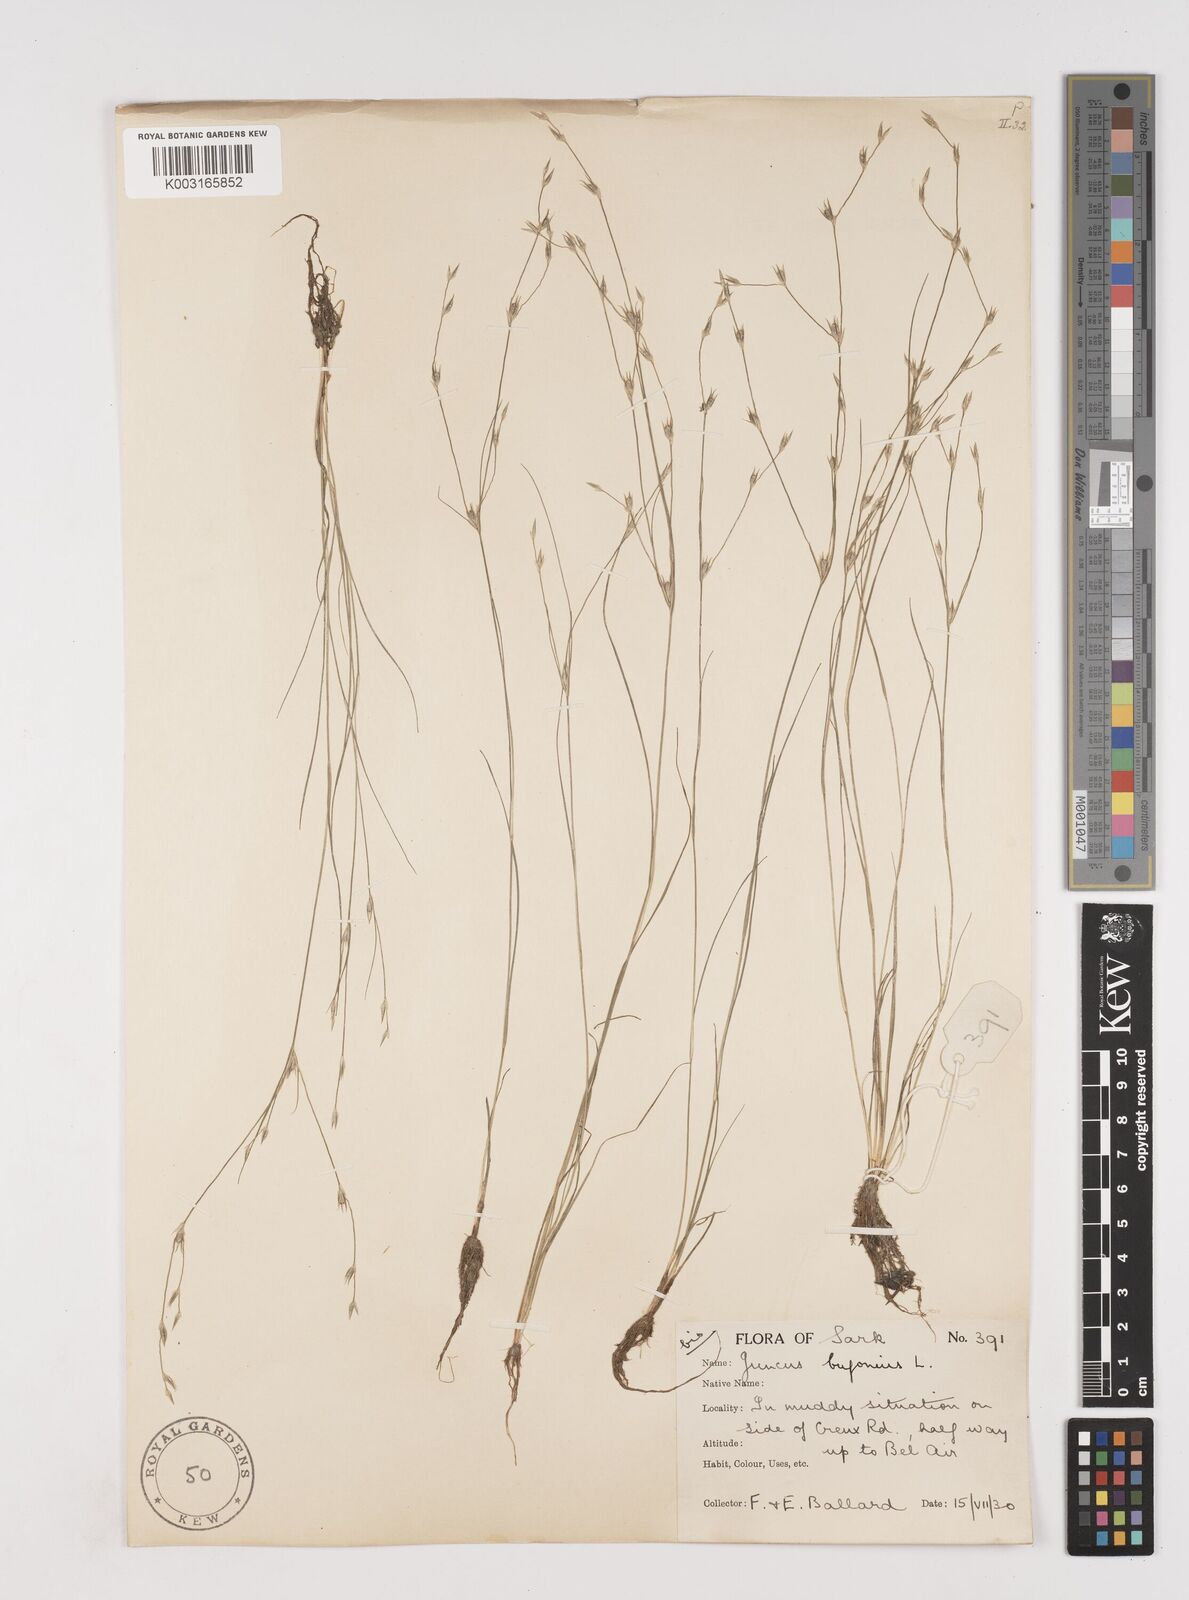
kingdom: Plantae
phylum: Tracheophyta
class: Liliopsida
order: Poales
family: Juncaceae
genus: Juncus
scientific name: Juncus bufonius
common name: Toad rush
